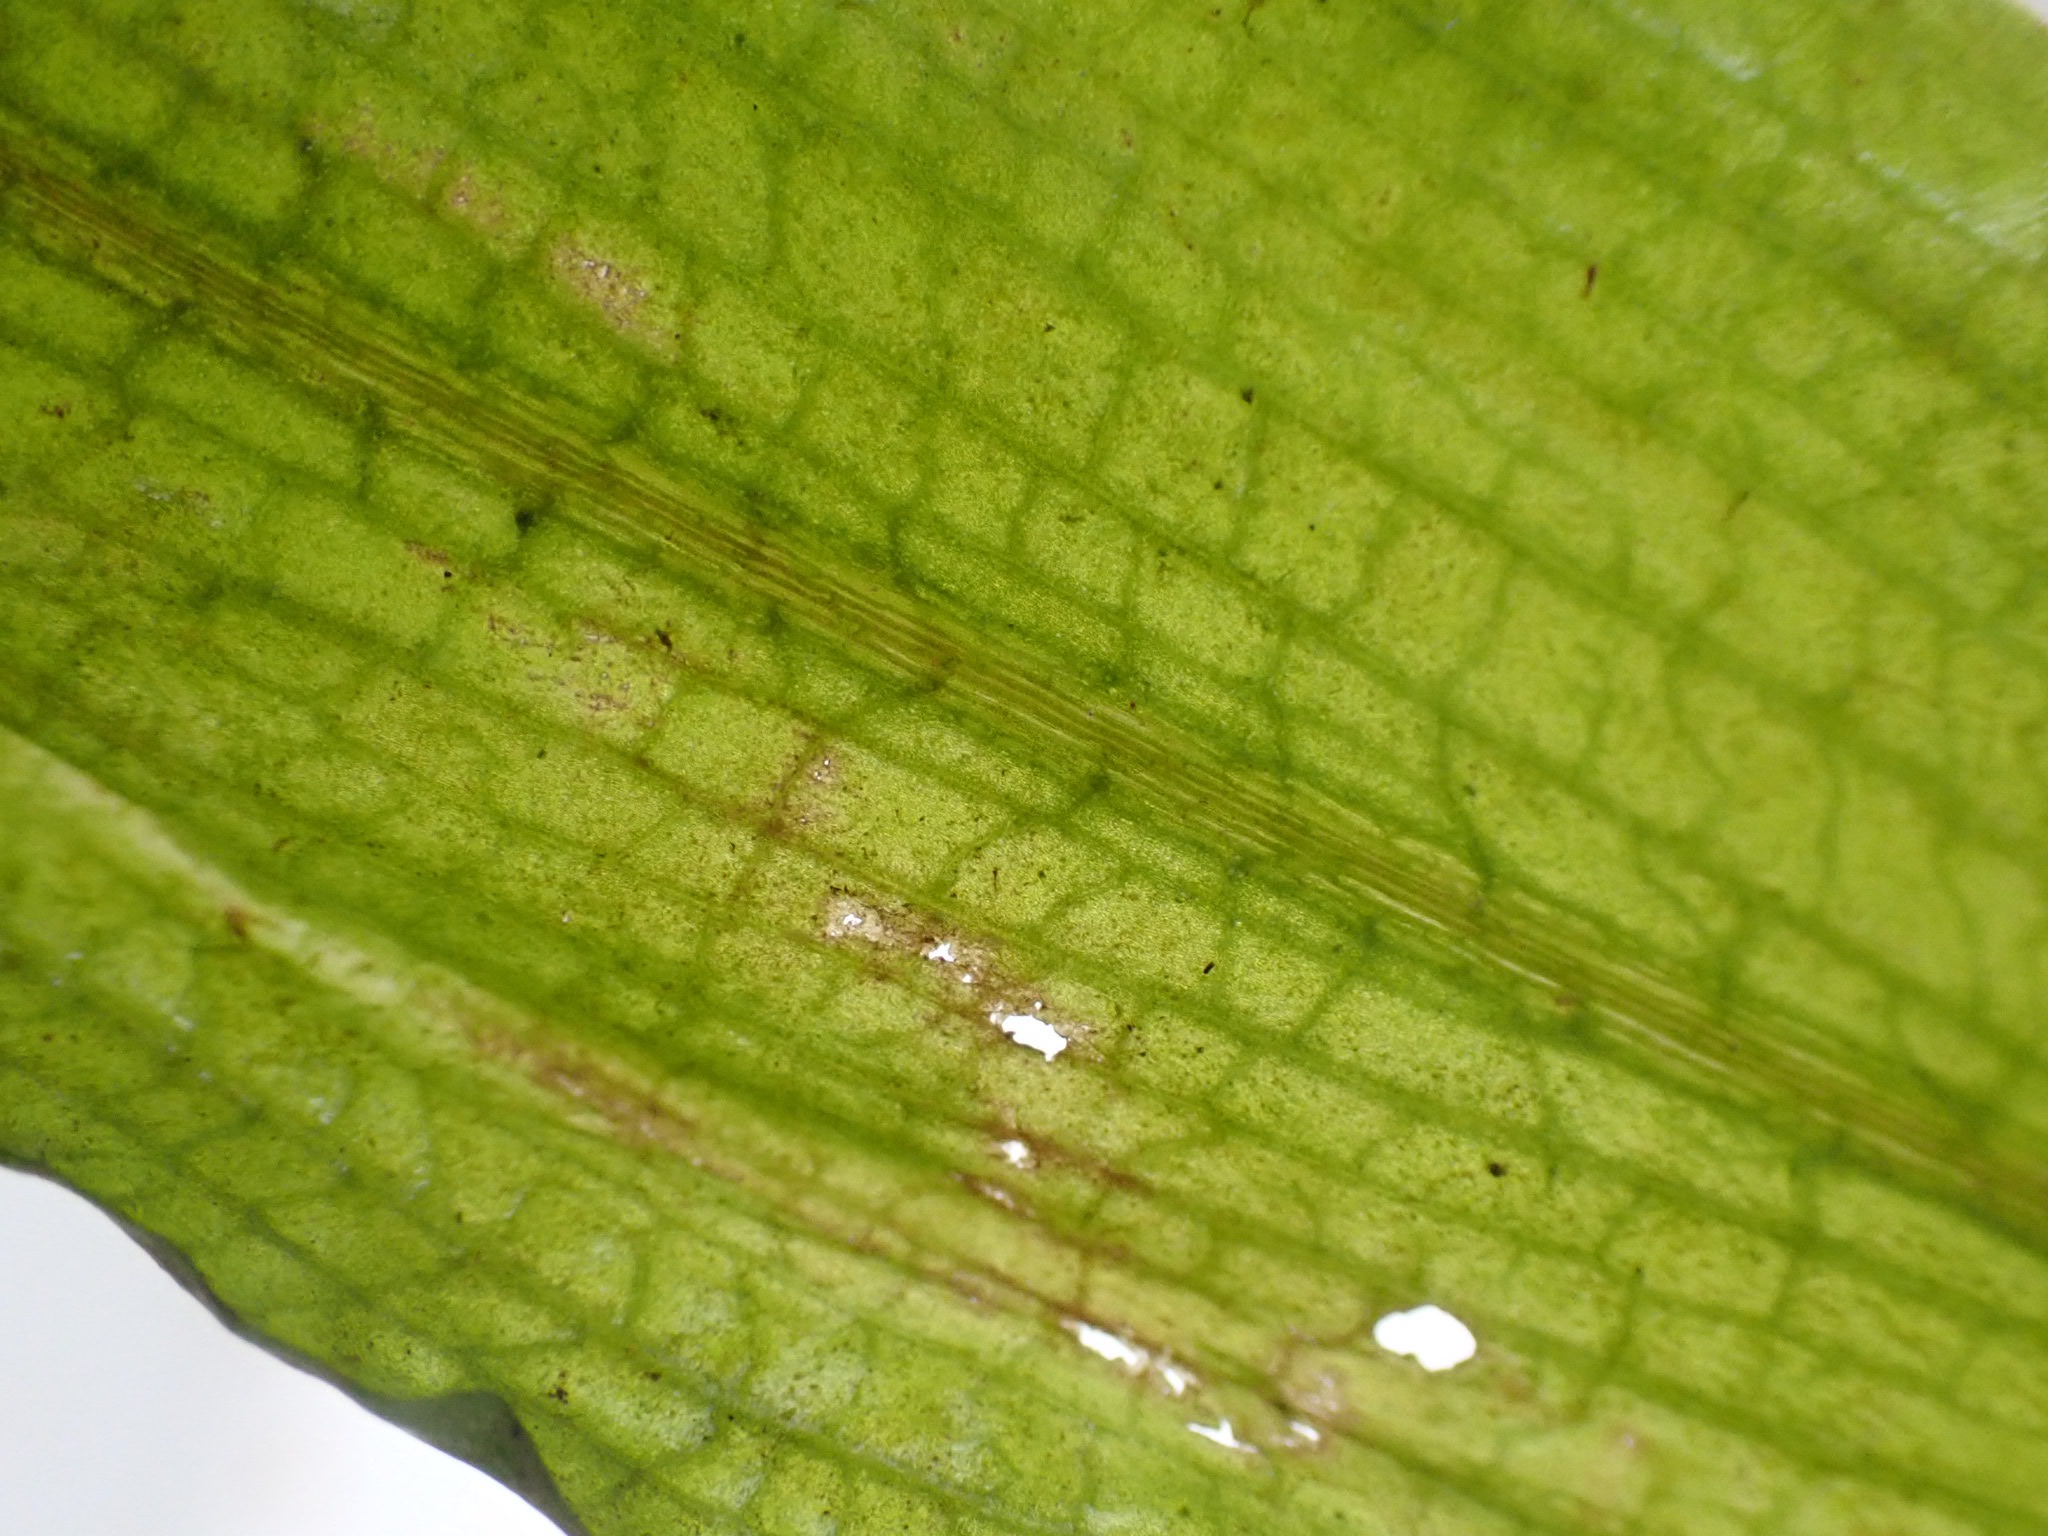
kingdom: Plantae
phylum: Tracheophyta
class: Liliopsida
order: Alismatales
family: Potamogetonaceae
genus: Potamogeton
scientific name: Potamogeton alpinus
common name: Rust-vandaks
